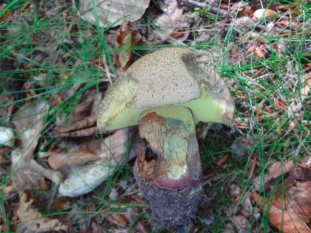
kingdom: Fungi
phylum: Basidiomycota
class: Agaricomycetes
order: Boletales
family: Boletaceae
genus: Caloboletus
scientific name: Caloboletus calopus
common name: skønfodet rørhat
